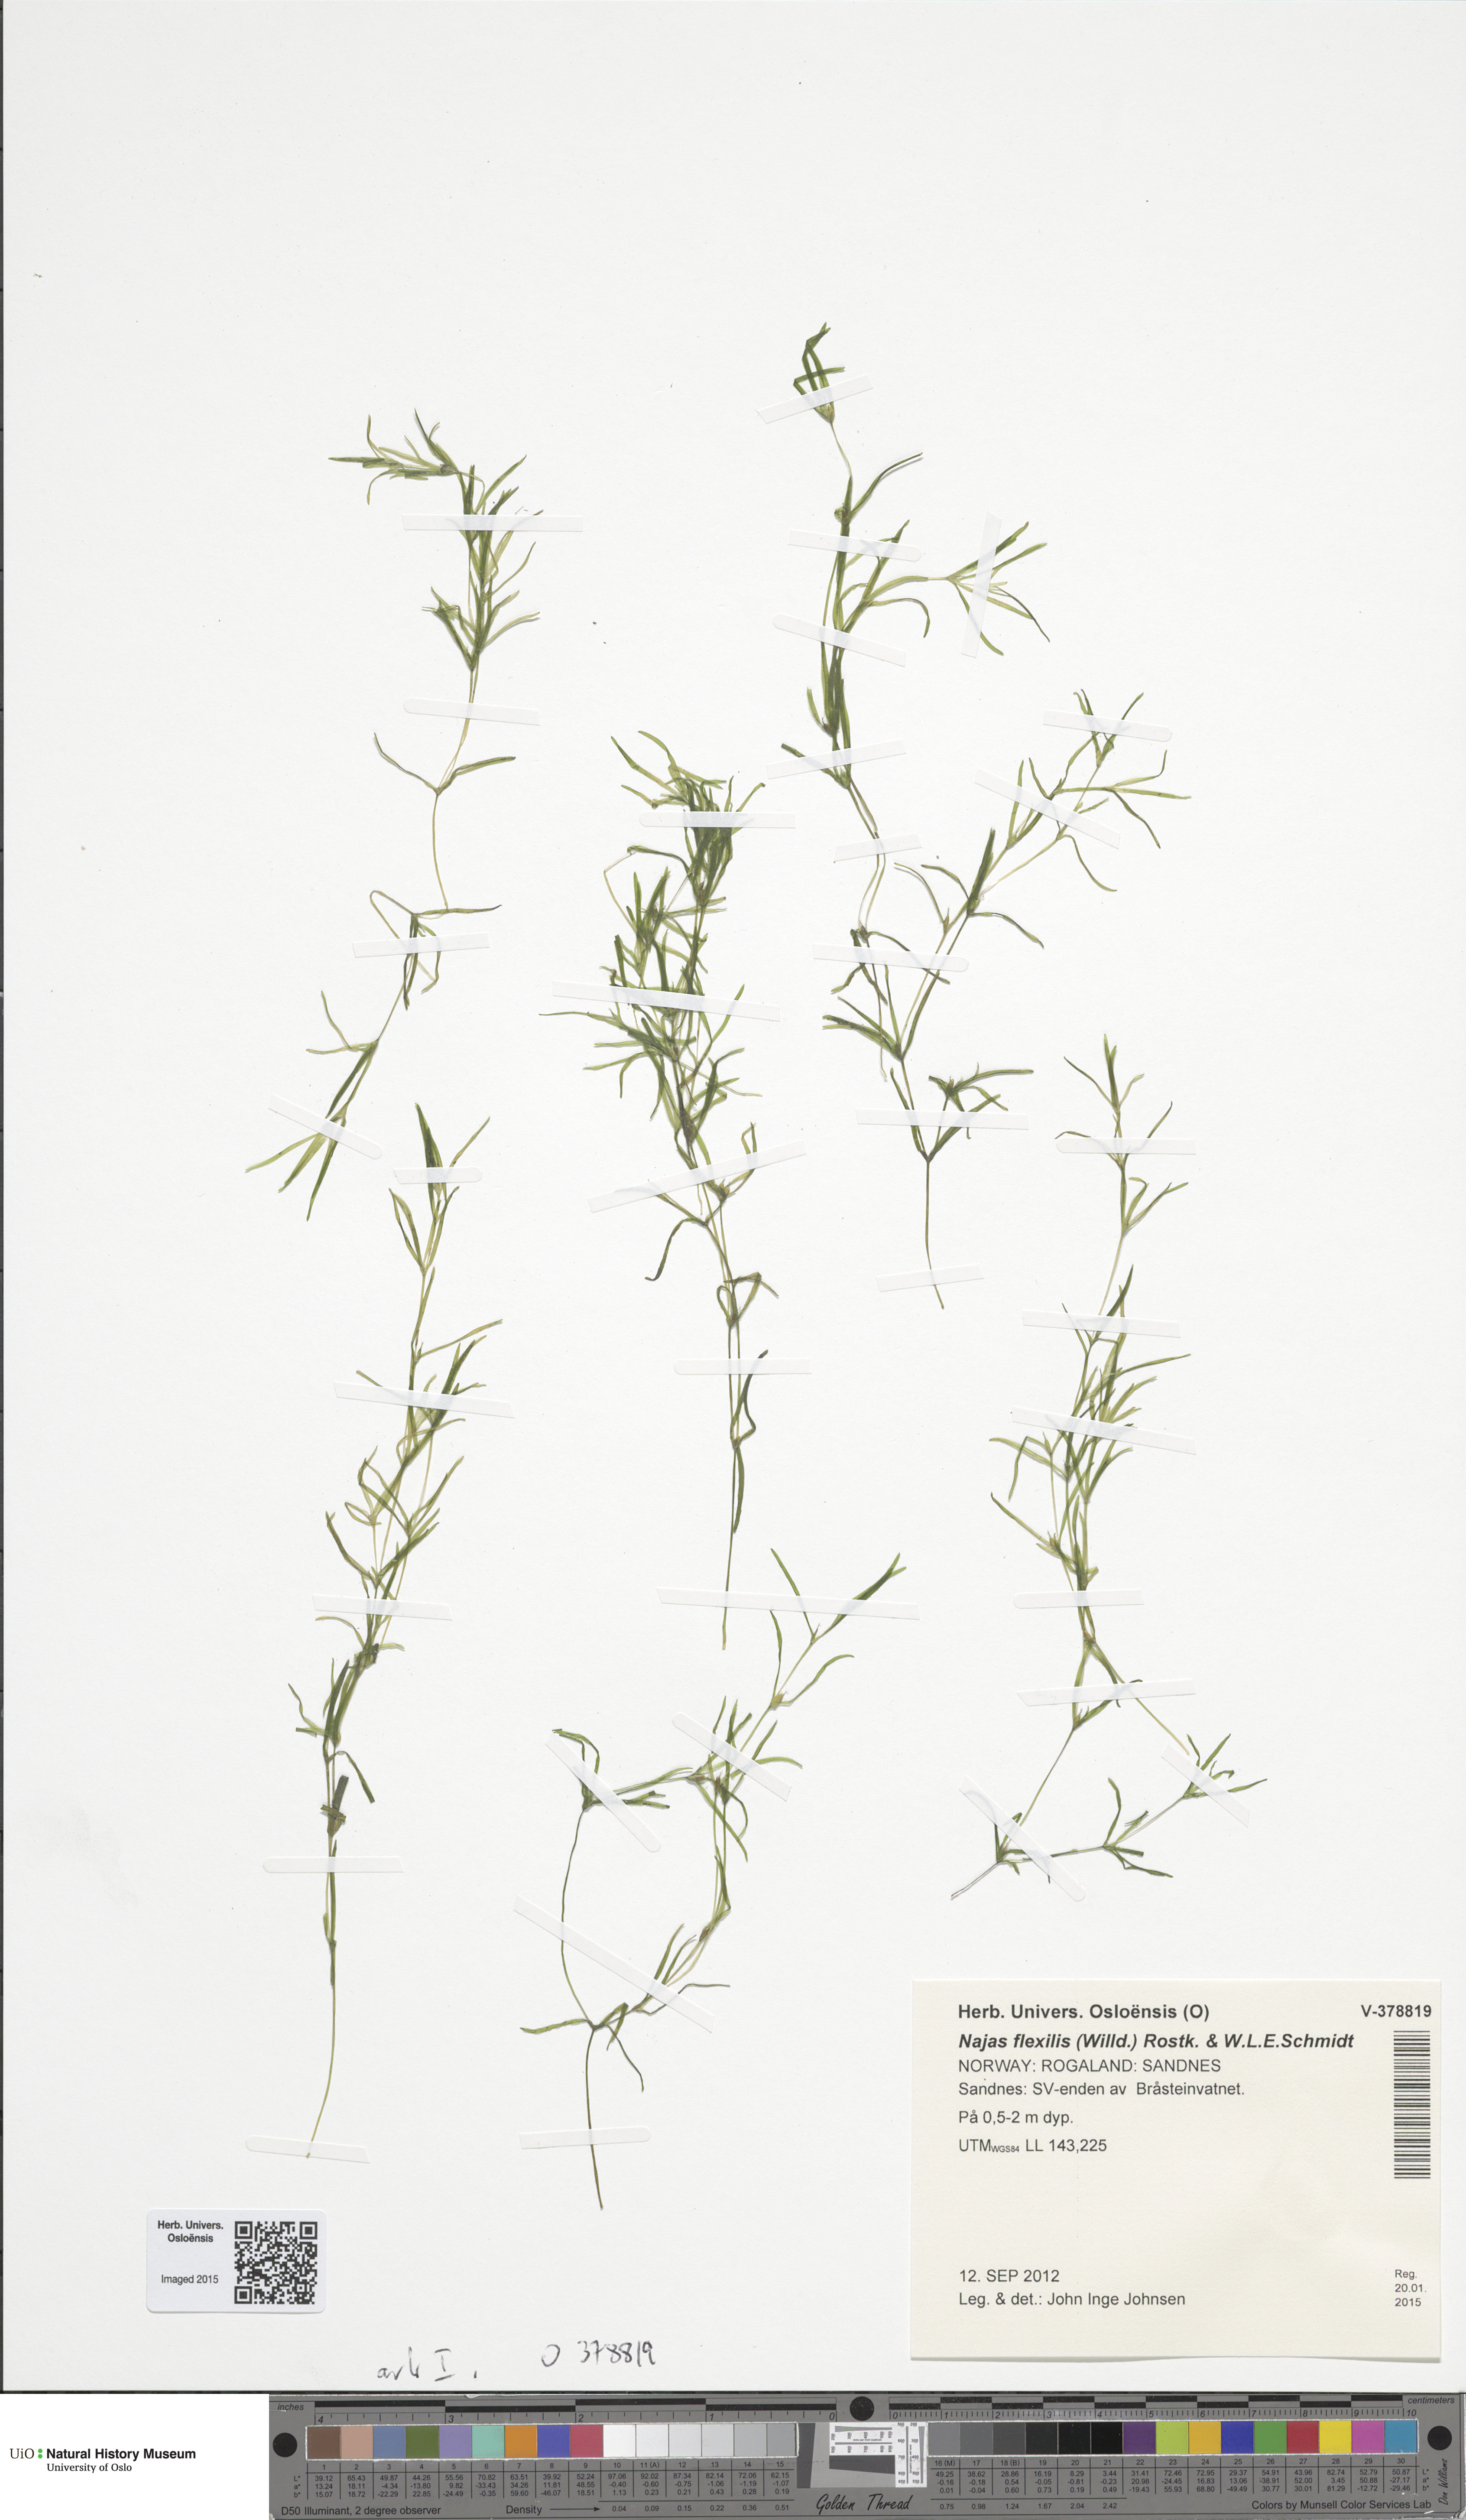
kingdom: Plantae
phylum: Tracheophyta
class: Liliopsida
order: Alismatales
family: Hydrocharitaceae
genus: Najas
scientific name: Najas flexilis
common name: Slender naiad
